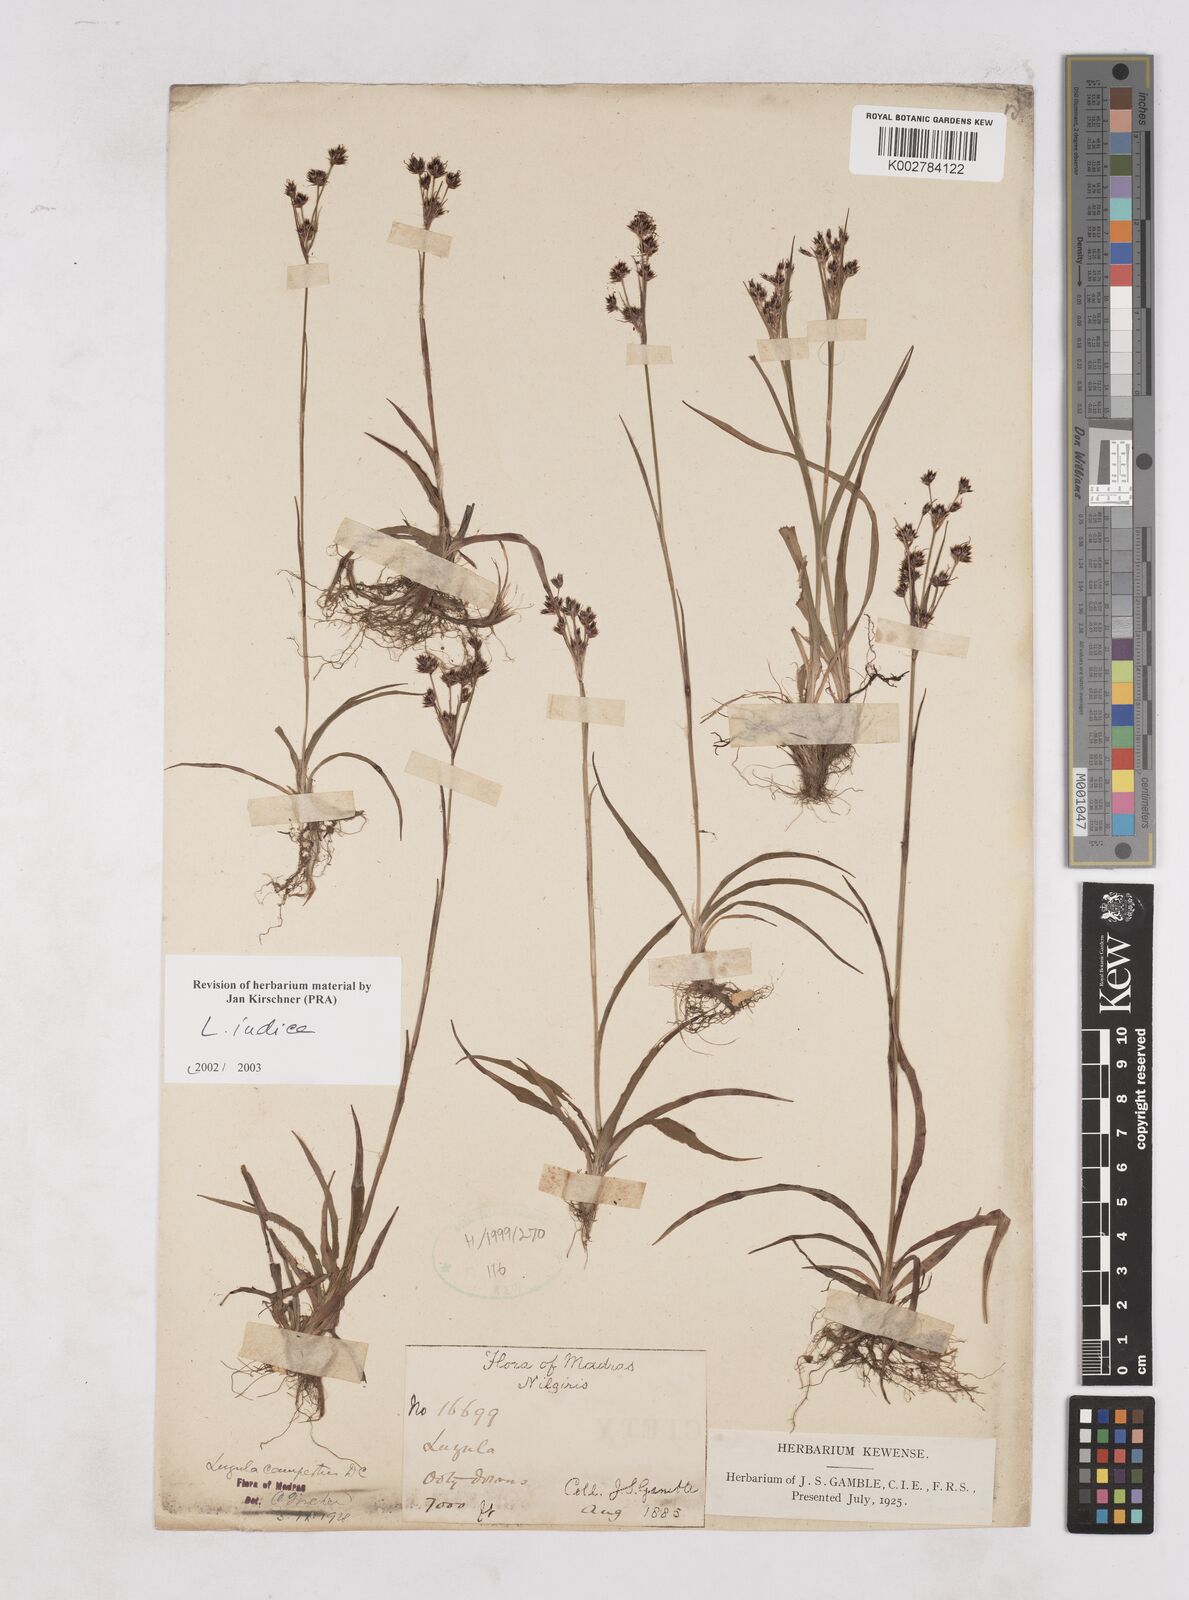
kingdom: Plantae
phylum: Tracheophyta
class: Liliopsida
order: Poales
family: Juncaceae
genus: Luzula
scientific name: Luzula indica
